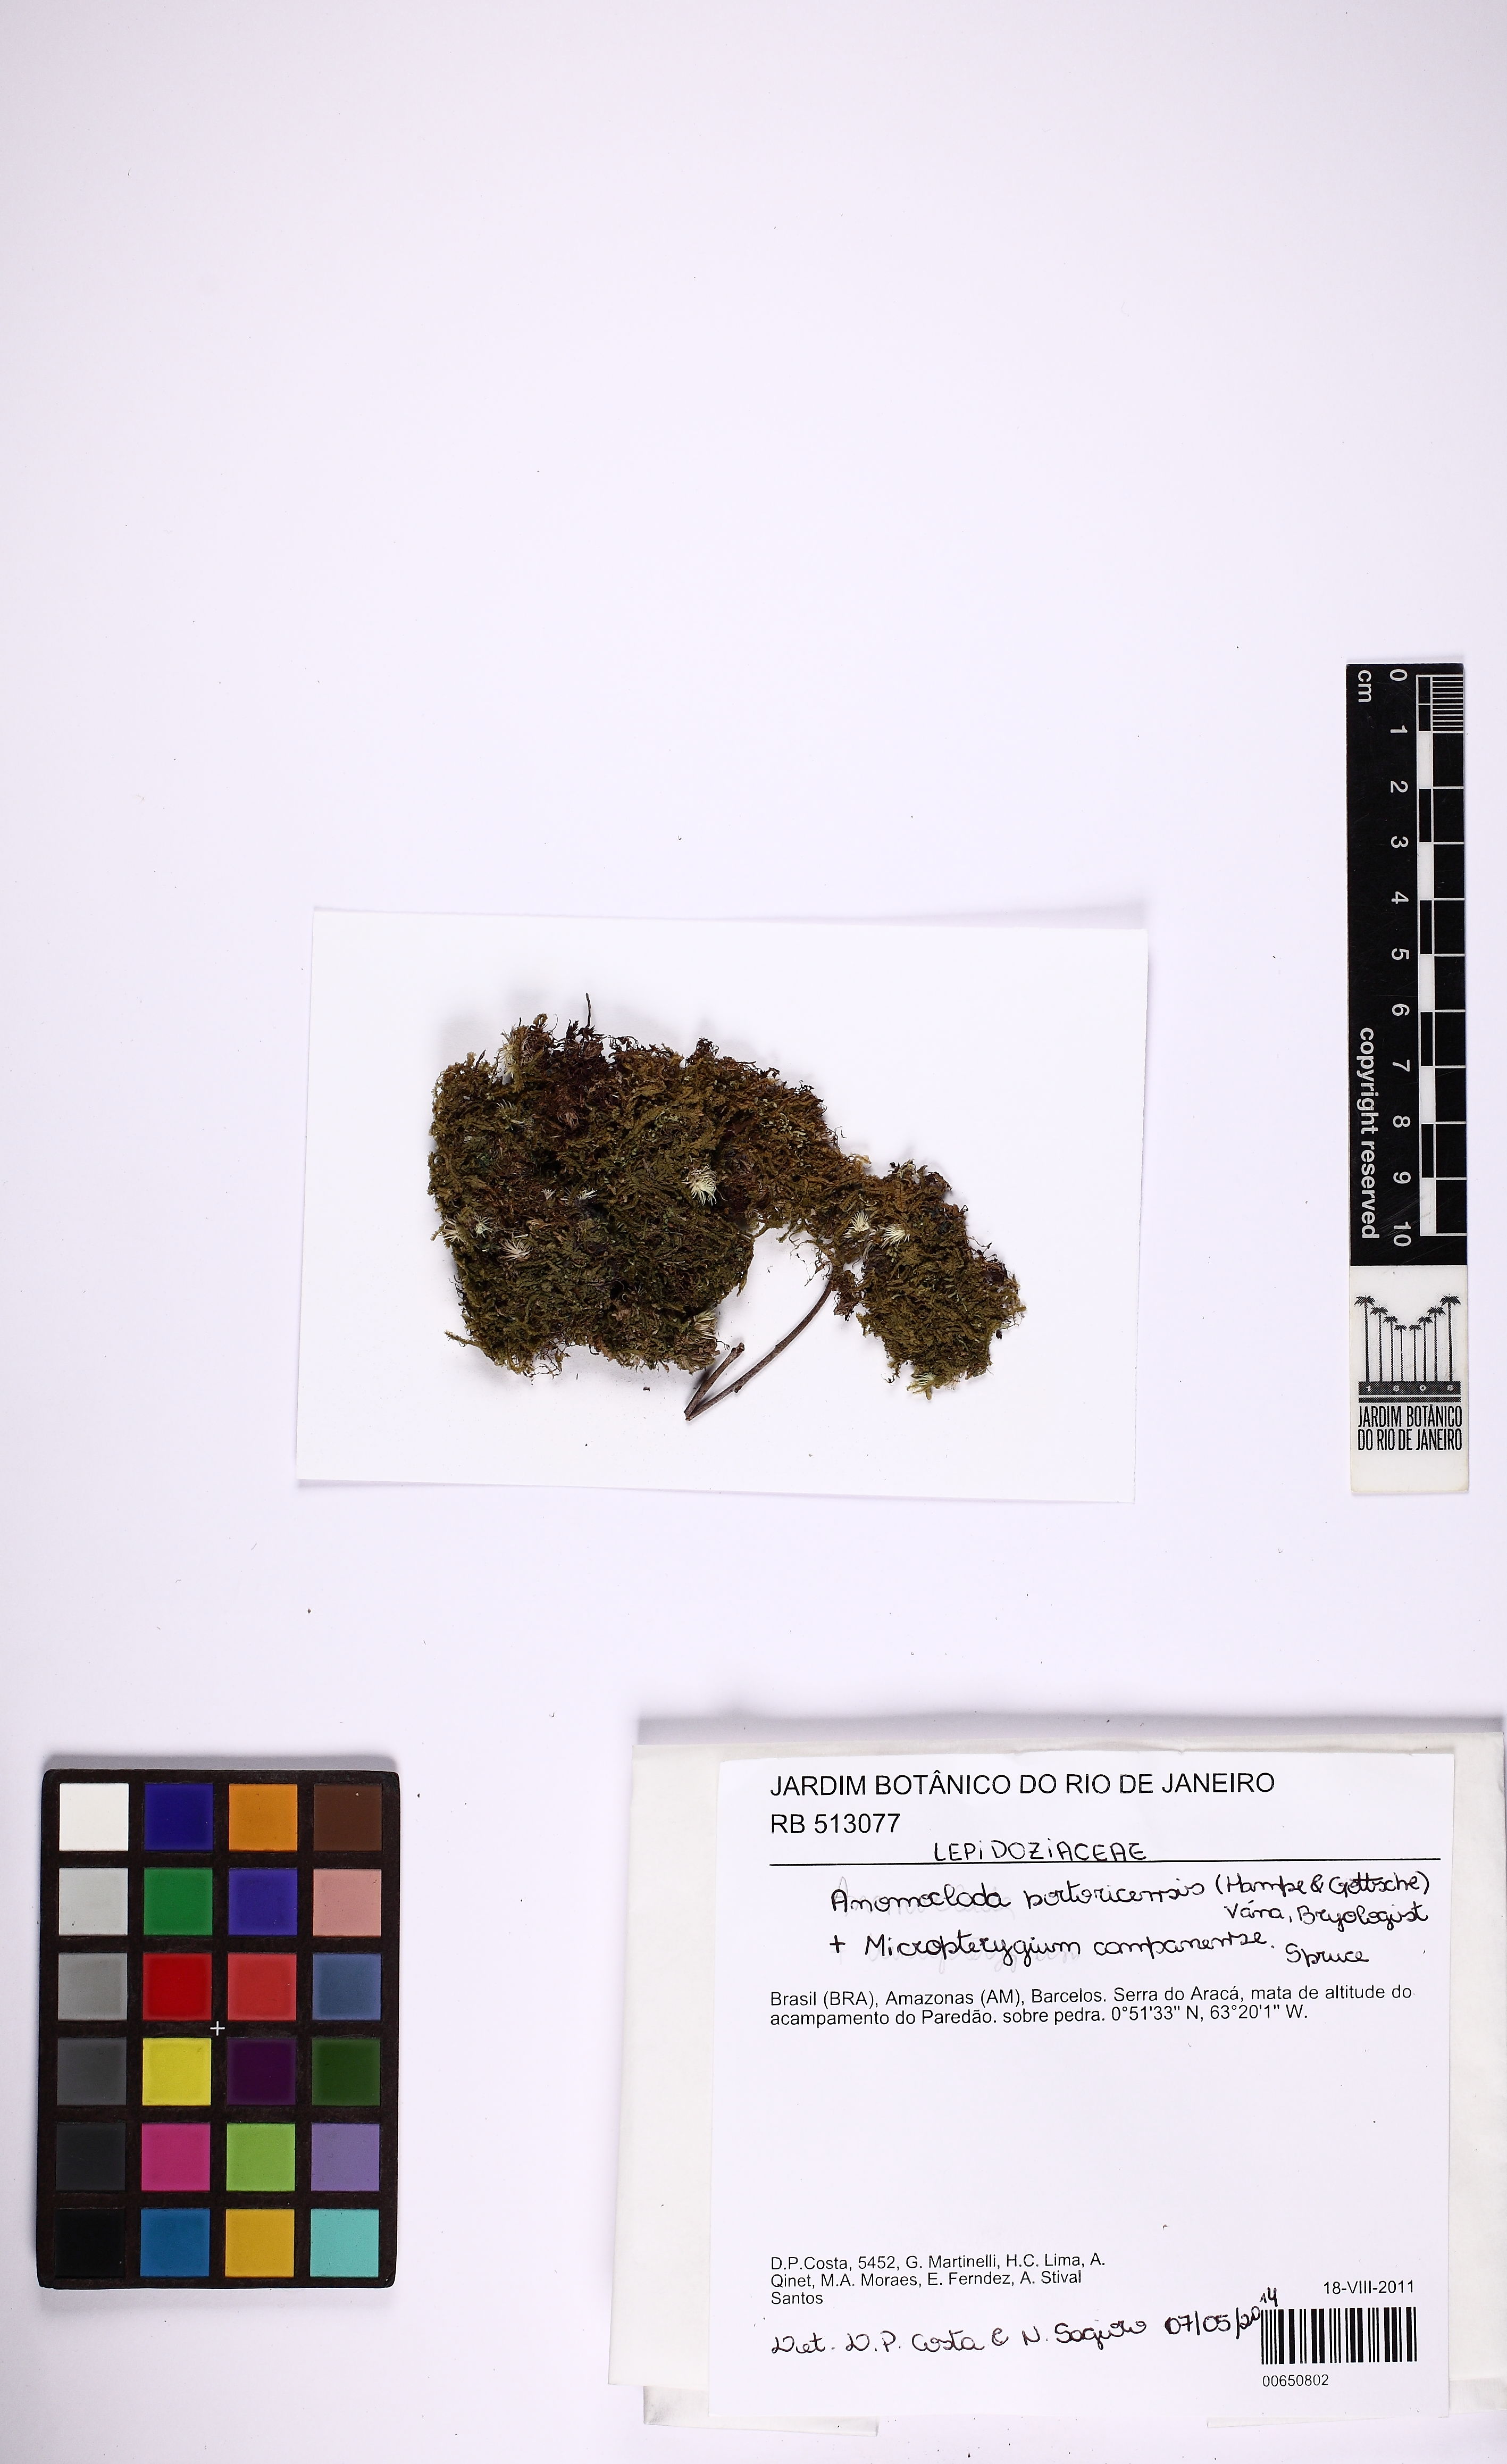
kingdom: Plantae
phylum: Marchantiophyta
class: Jungermanniopsida
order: Jungermanniales
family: Cephaloziaceae
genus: Odontoschisma
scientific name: Odontoschisma portoricense
